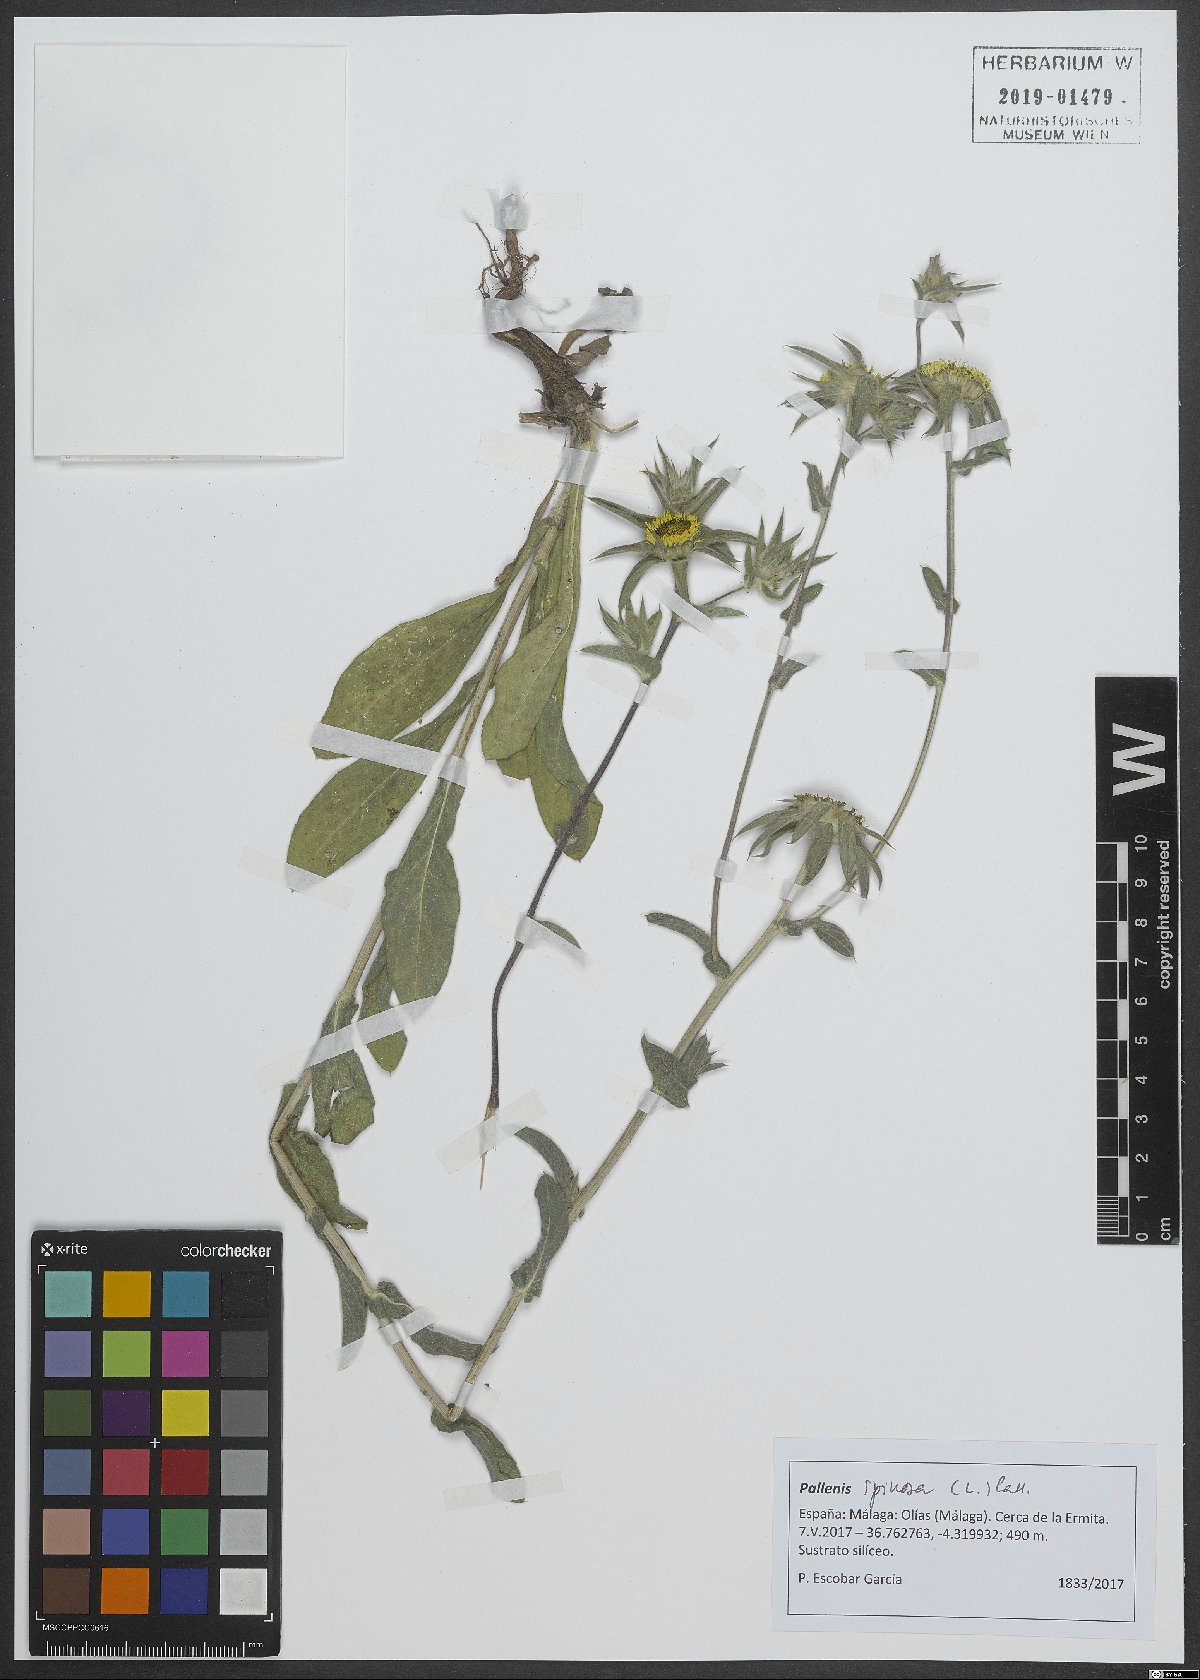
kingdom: Plantae
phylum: Tracheophyta
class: Magnoliopsida
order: Asterales
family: Asteraceae
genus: Pallenis
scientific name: Pallenis spinosa
